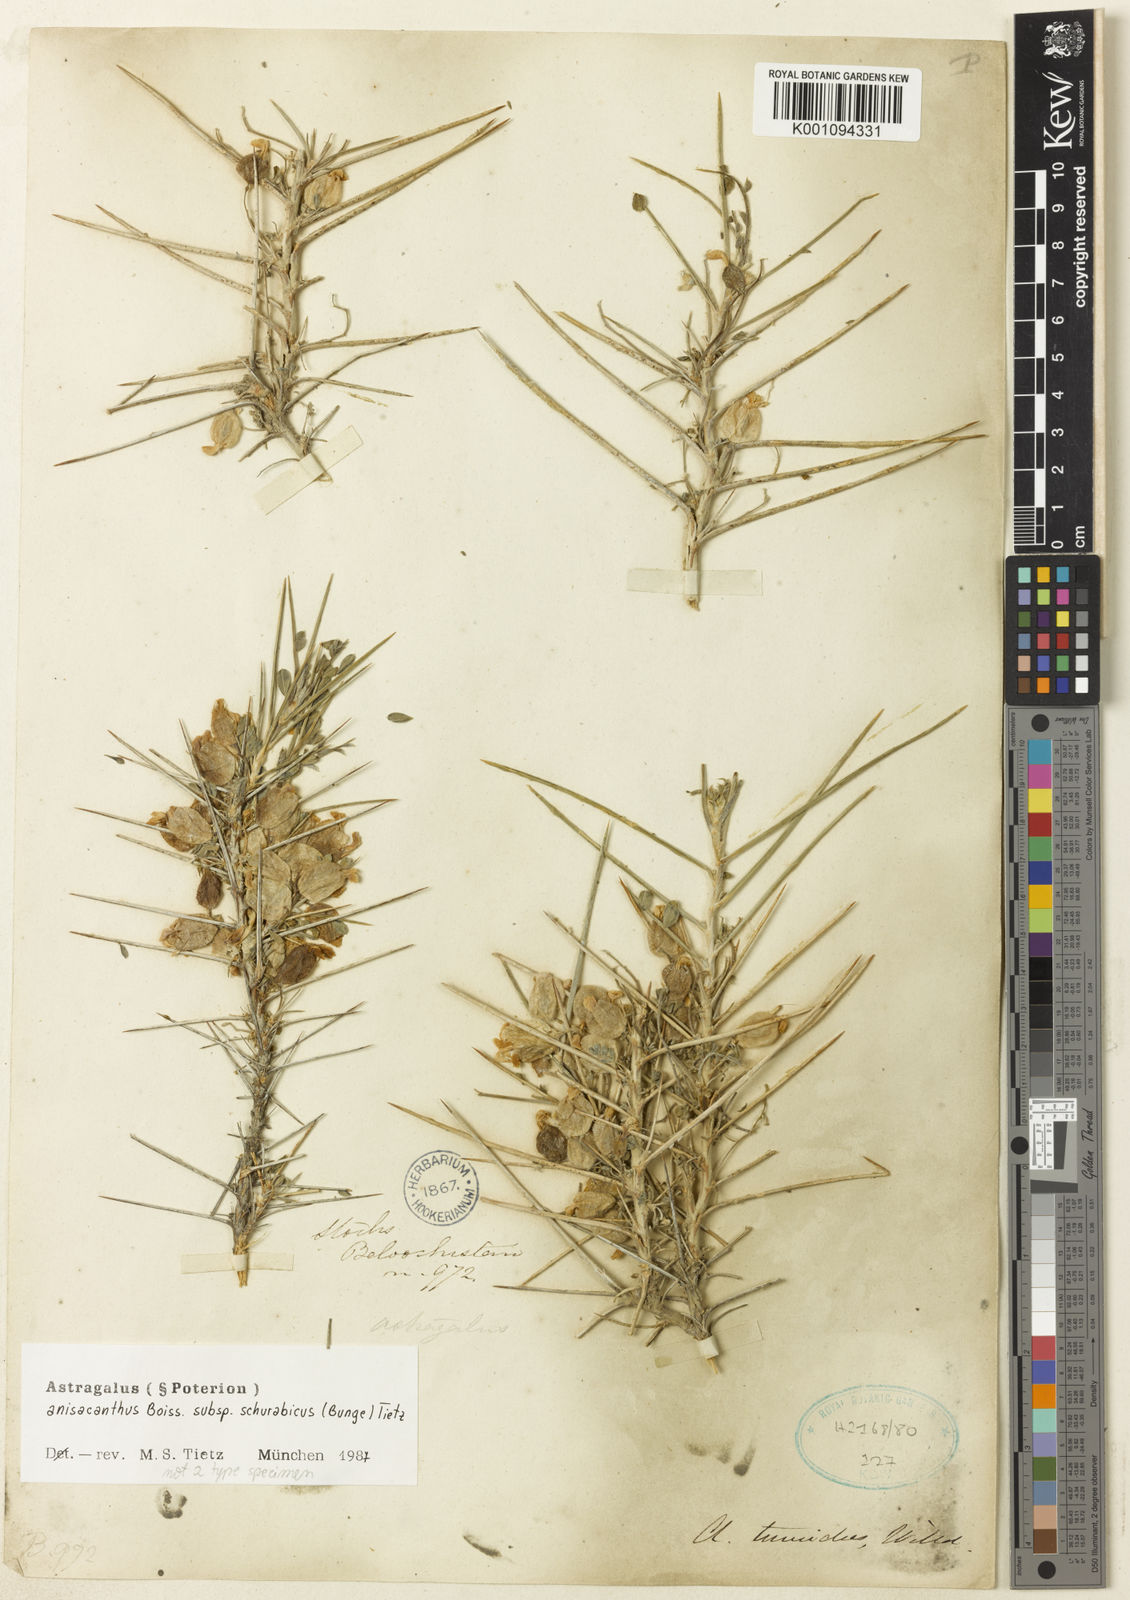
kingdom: Plantae
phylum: Tracheophyta
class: Magnoliopsida
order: Fabales
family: Fabaceae
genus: Astragalus
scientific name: Astragalus anisacanthus
